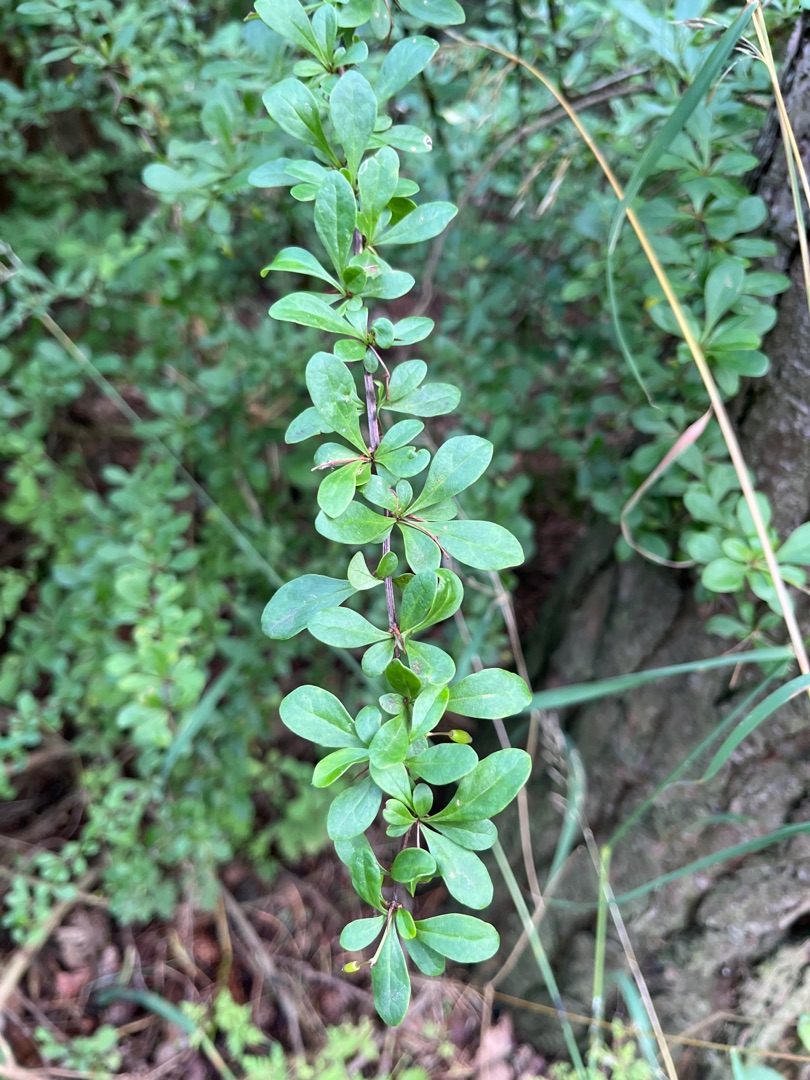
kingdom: Plantae
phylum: Tracheophyta
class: Magnoliopsida
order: Ranunculales
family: Berberidaceae
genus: Berberis
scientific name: Berberis thunbergii
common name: Hæk-berberis
